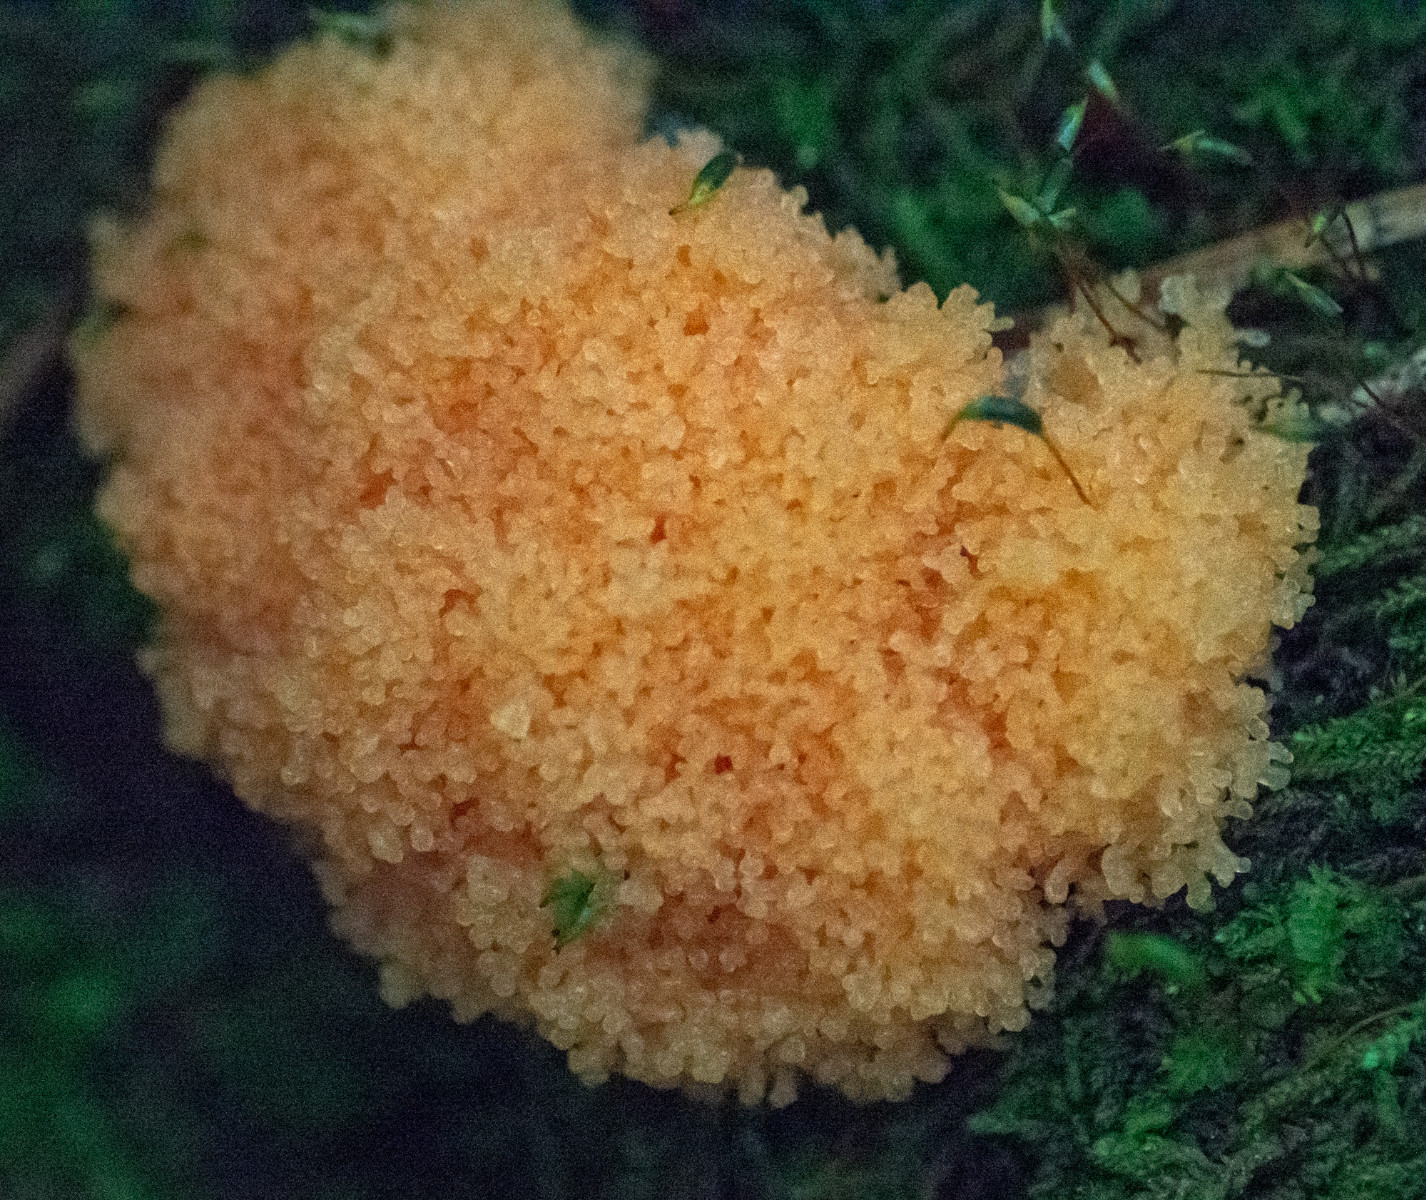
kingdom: Protozoa
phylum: Mycetozoa
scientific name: Mycetozoa
